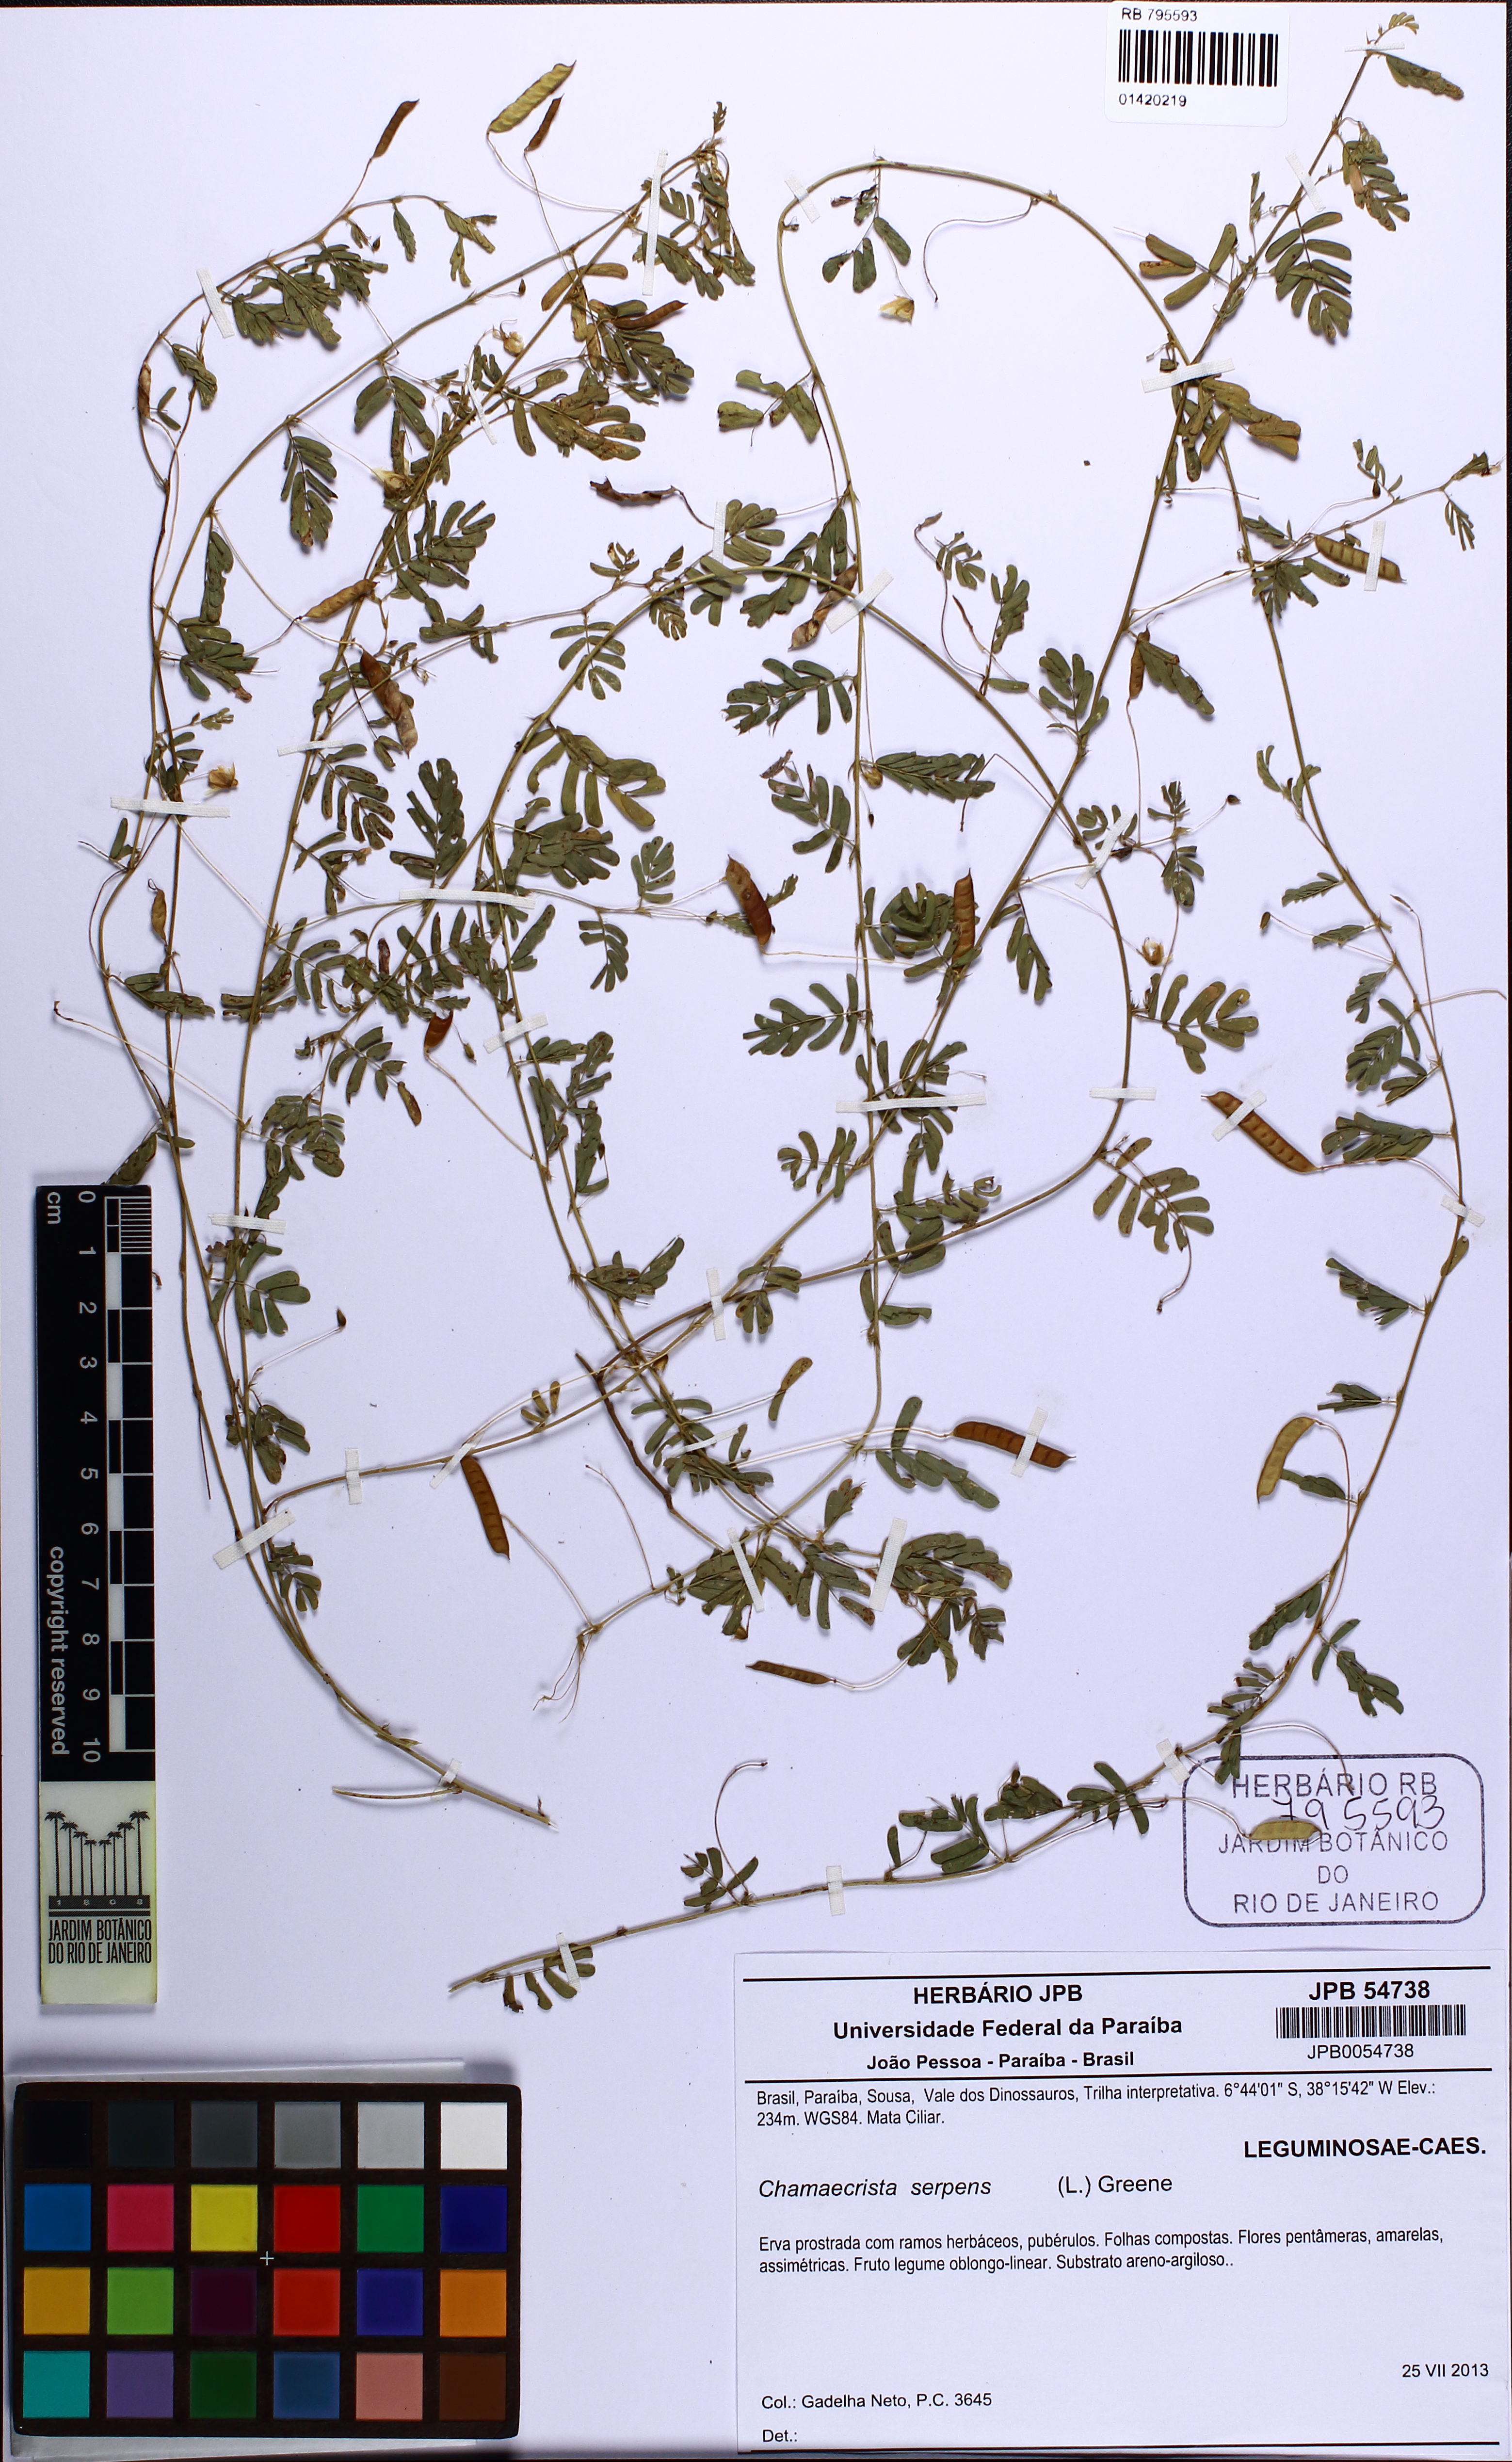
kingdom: Plantae
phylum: Tracheophyta
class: Magnoliopsida
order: Fabales
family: Fabaceae
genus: Chamaecrista
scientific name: Chamaecrista serpens
